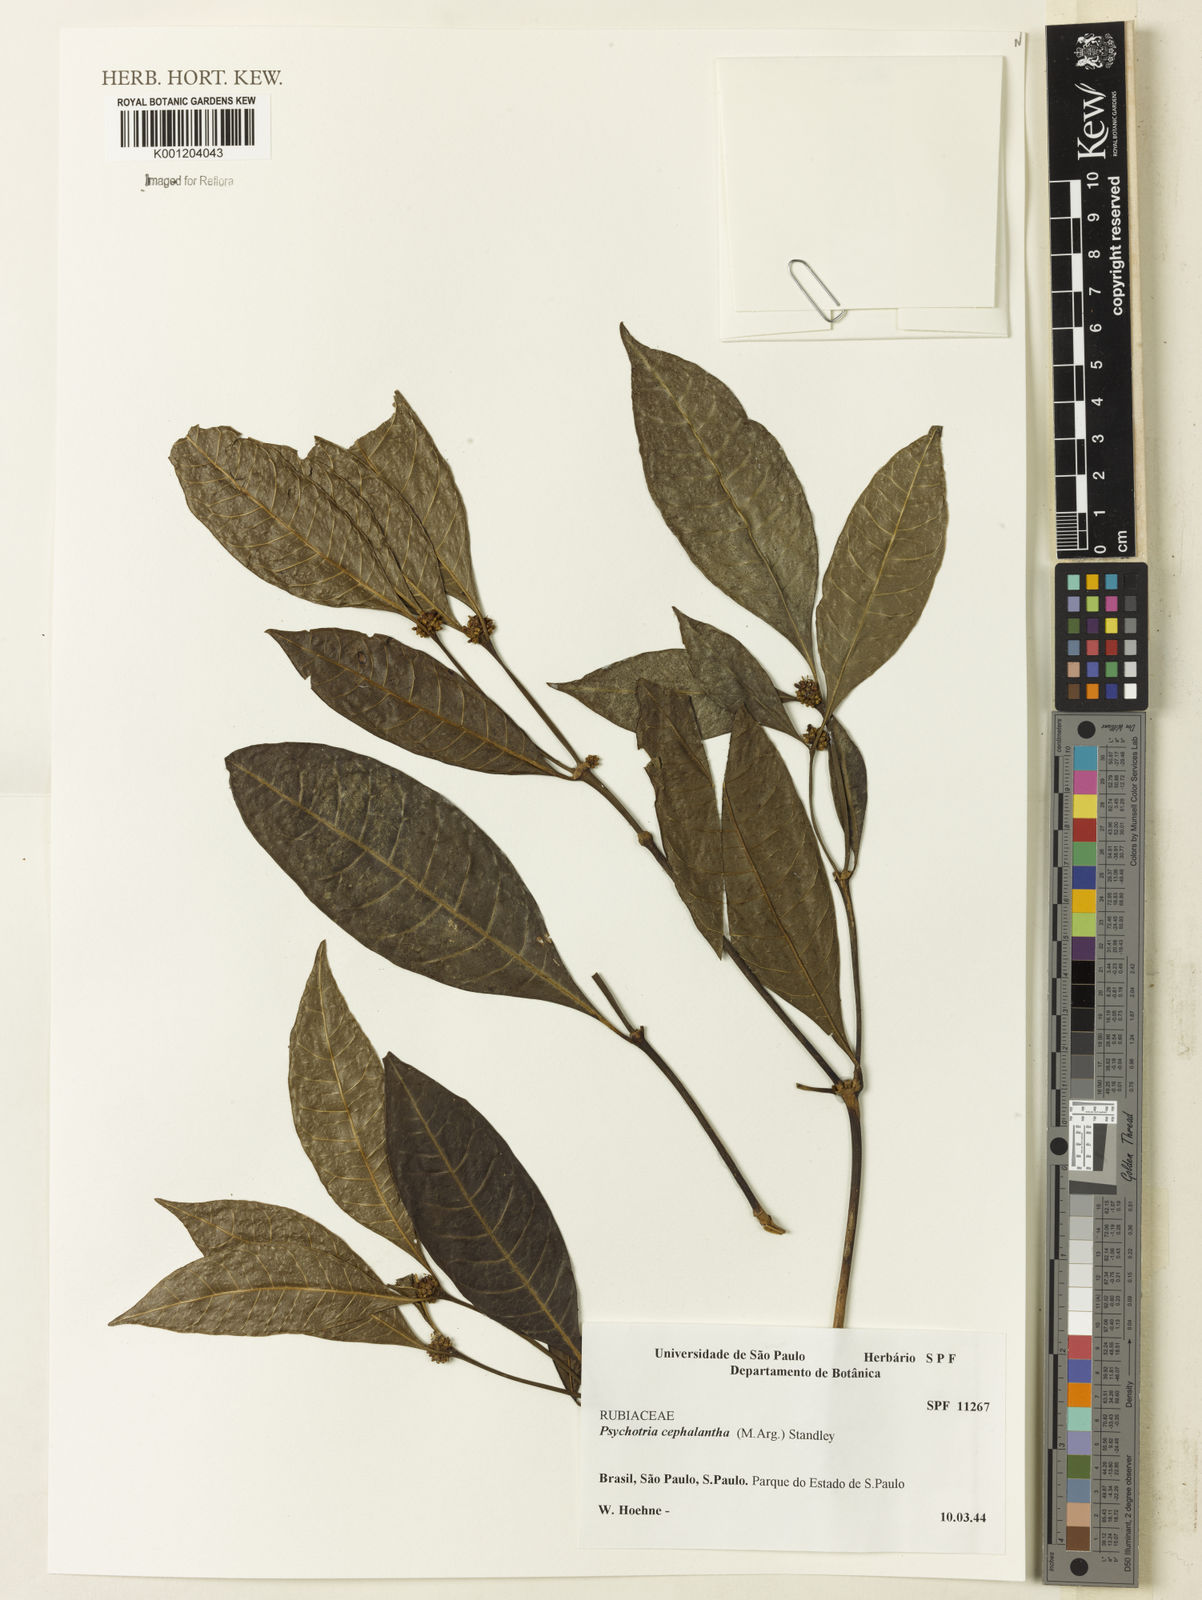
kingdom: Plantae
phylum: Tracheophyta
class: Magnoliopsida
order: Gentianales
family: Rubiaceae
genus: Eumachia
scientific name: Eumachia
